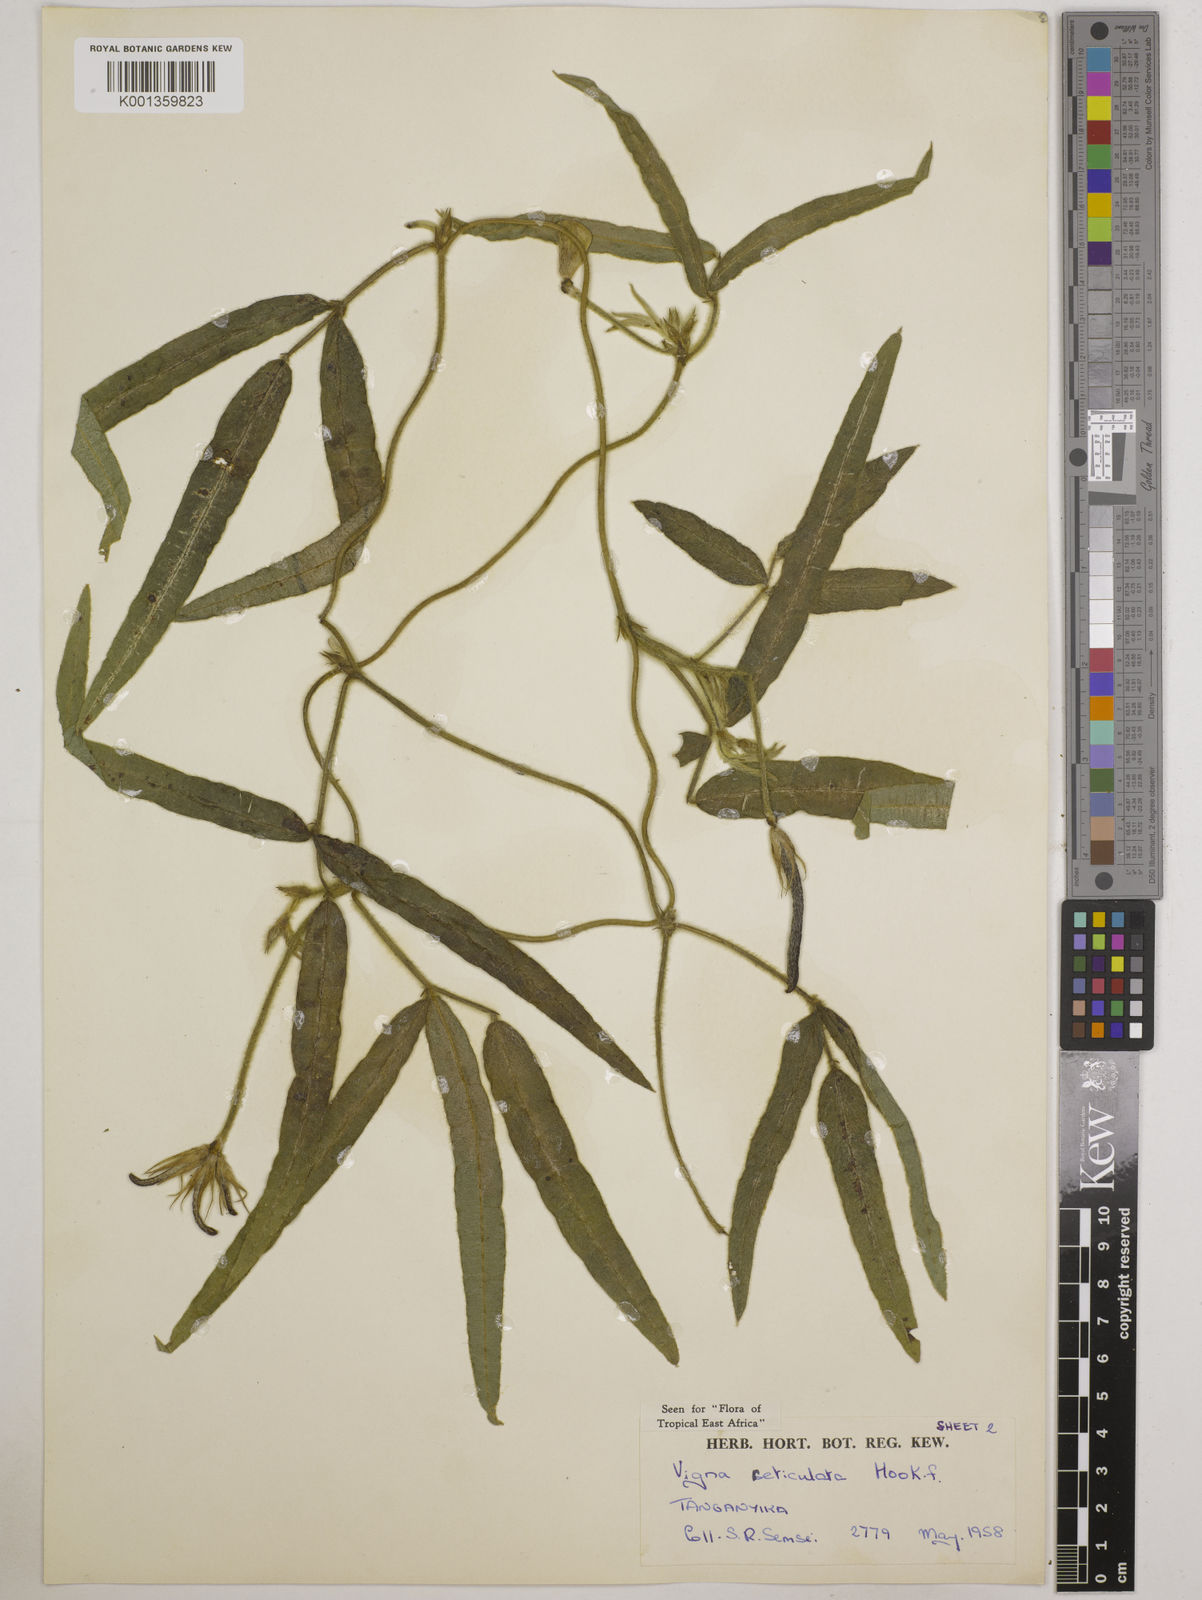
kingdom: Plantae
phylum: Tracheophyta
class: Magnoliopsida
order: Fabales
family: Fabaceae
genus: Vigna
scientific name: Vigna reticulata
